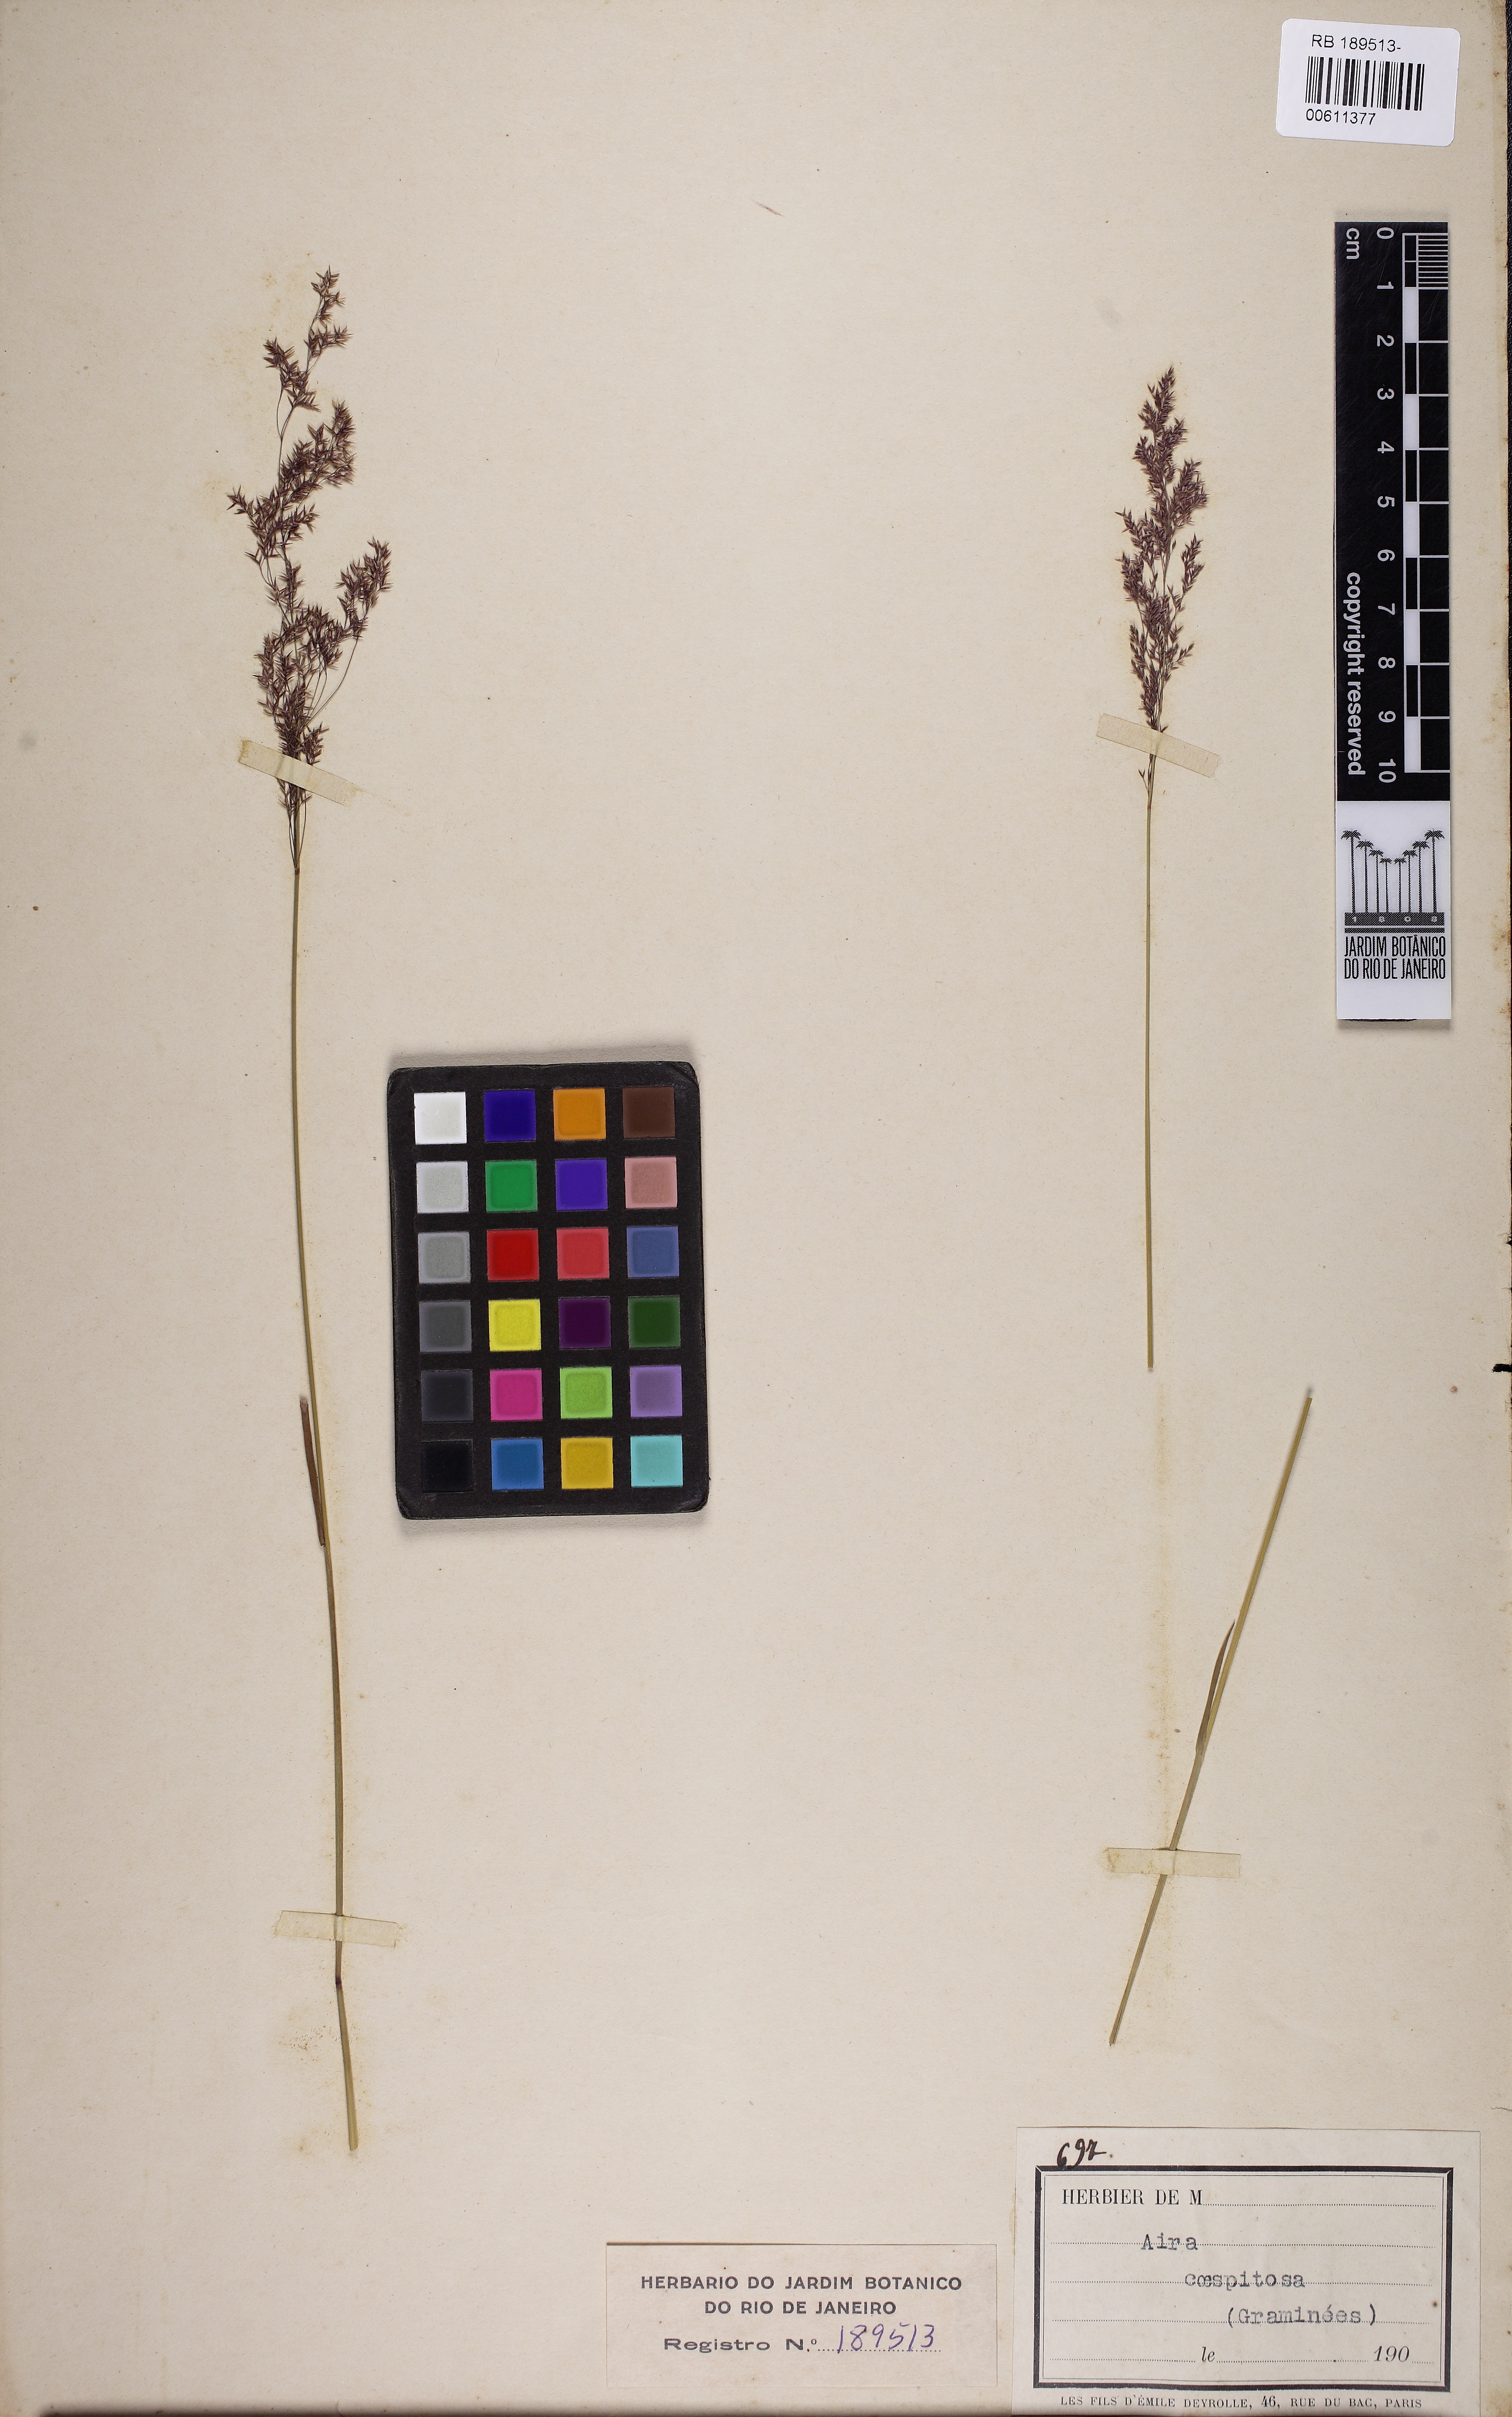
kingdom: Plantae
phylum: Tracheophyta
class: Liliopsida
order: Poales
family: Poaceae
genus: Deschampsia
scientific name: Deschampsia cespitosa
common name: Tufted hair-grass
